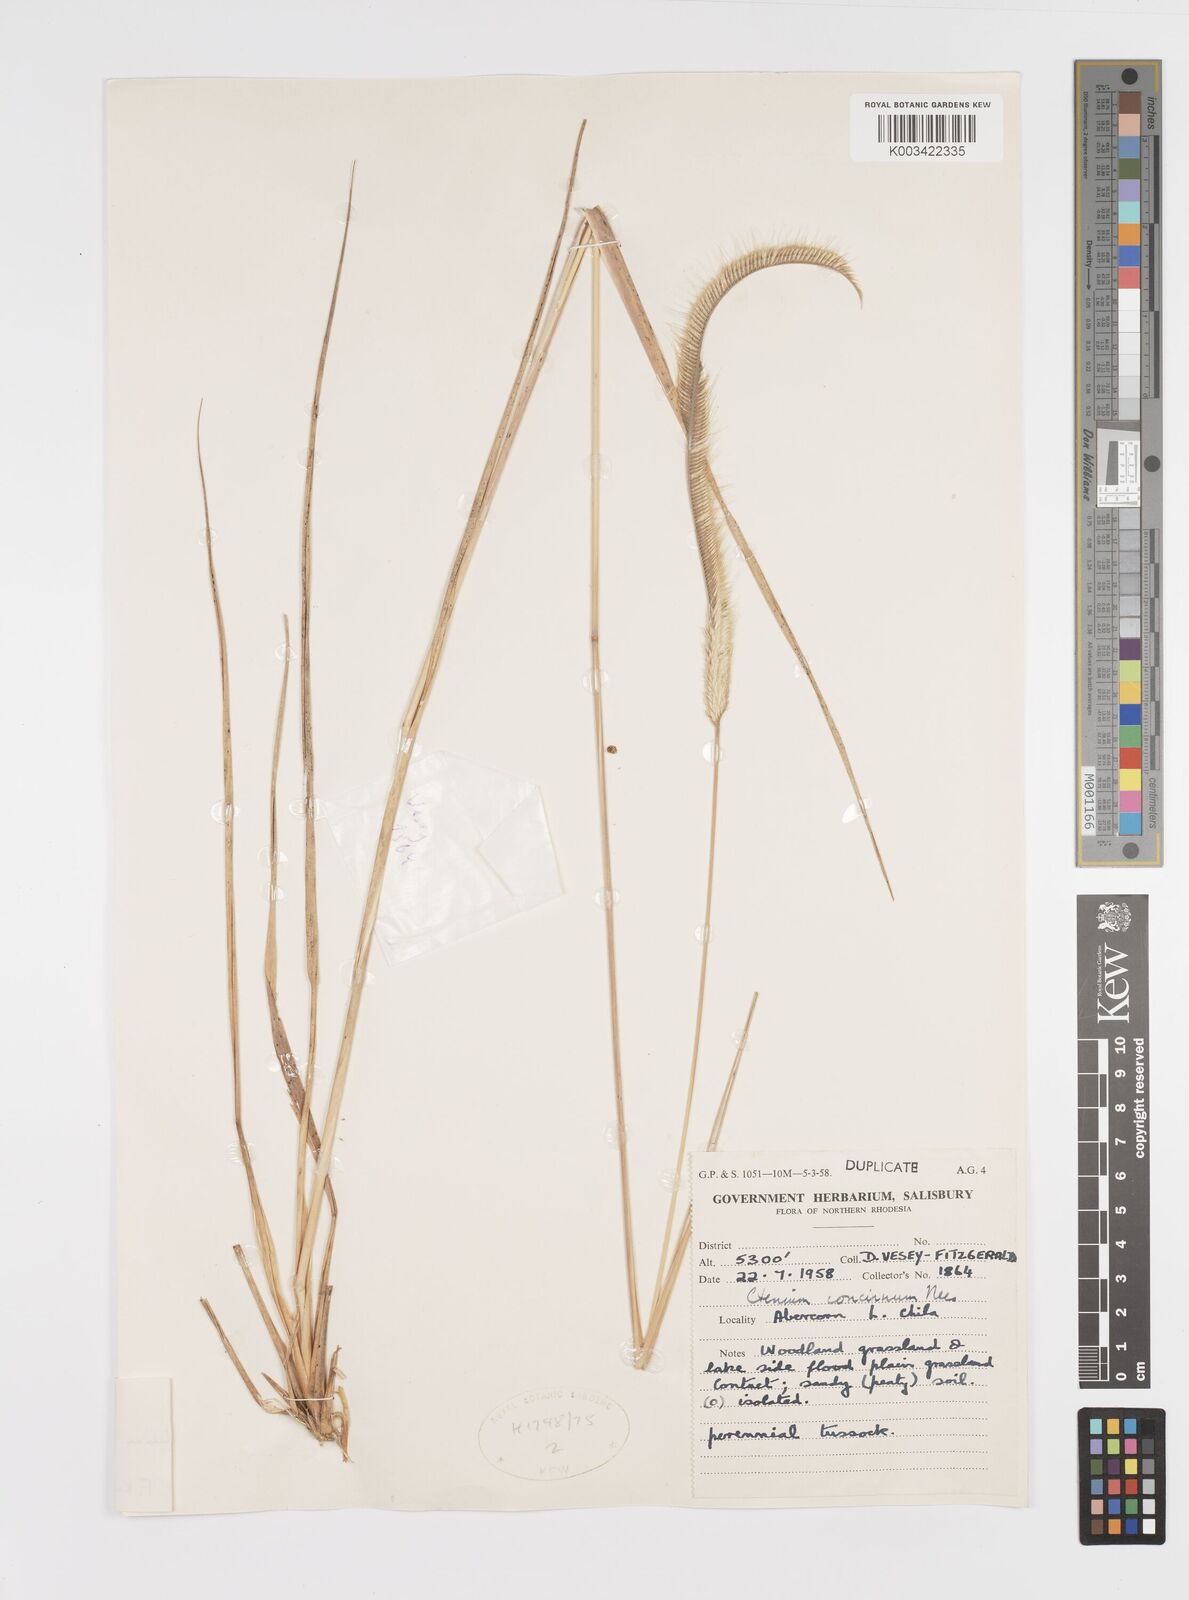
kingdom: Plantae
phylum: Tracheophyta
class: Liliopsida
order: Poales
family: Poaceae
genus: Ctenium
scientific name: Ctenium longiglume
